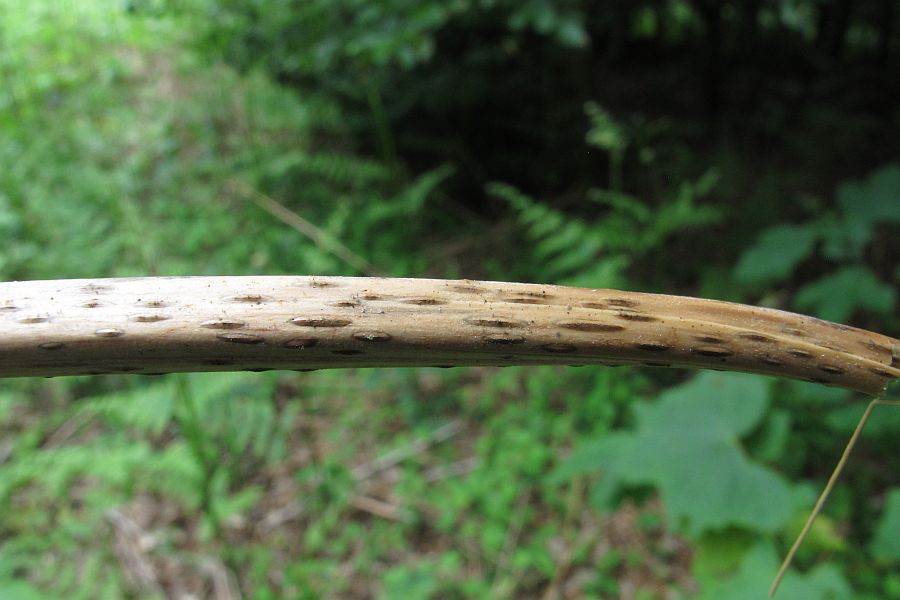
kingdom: Fungi
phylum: Ascomycota
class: Dothideomycetes
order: Pleosporales
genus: Camarographium
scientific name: Camarographium stephensii
